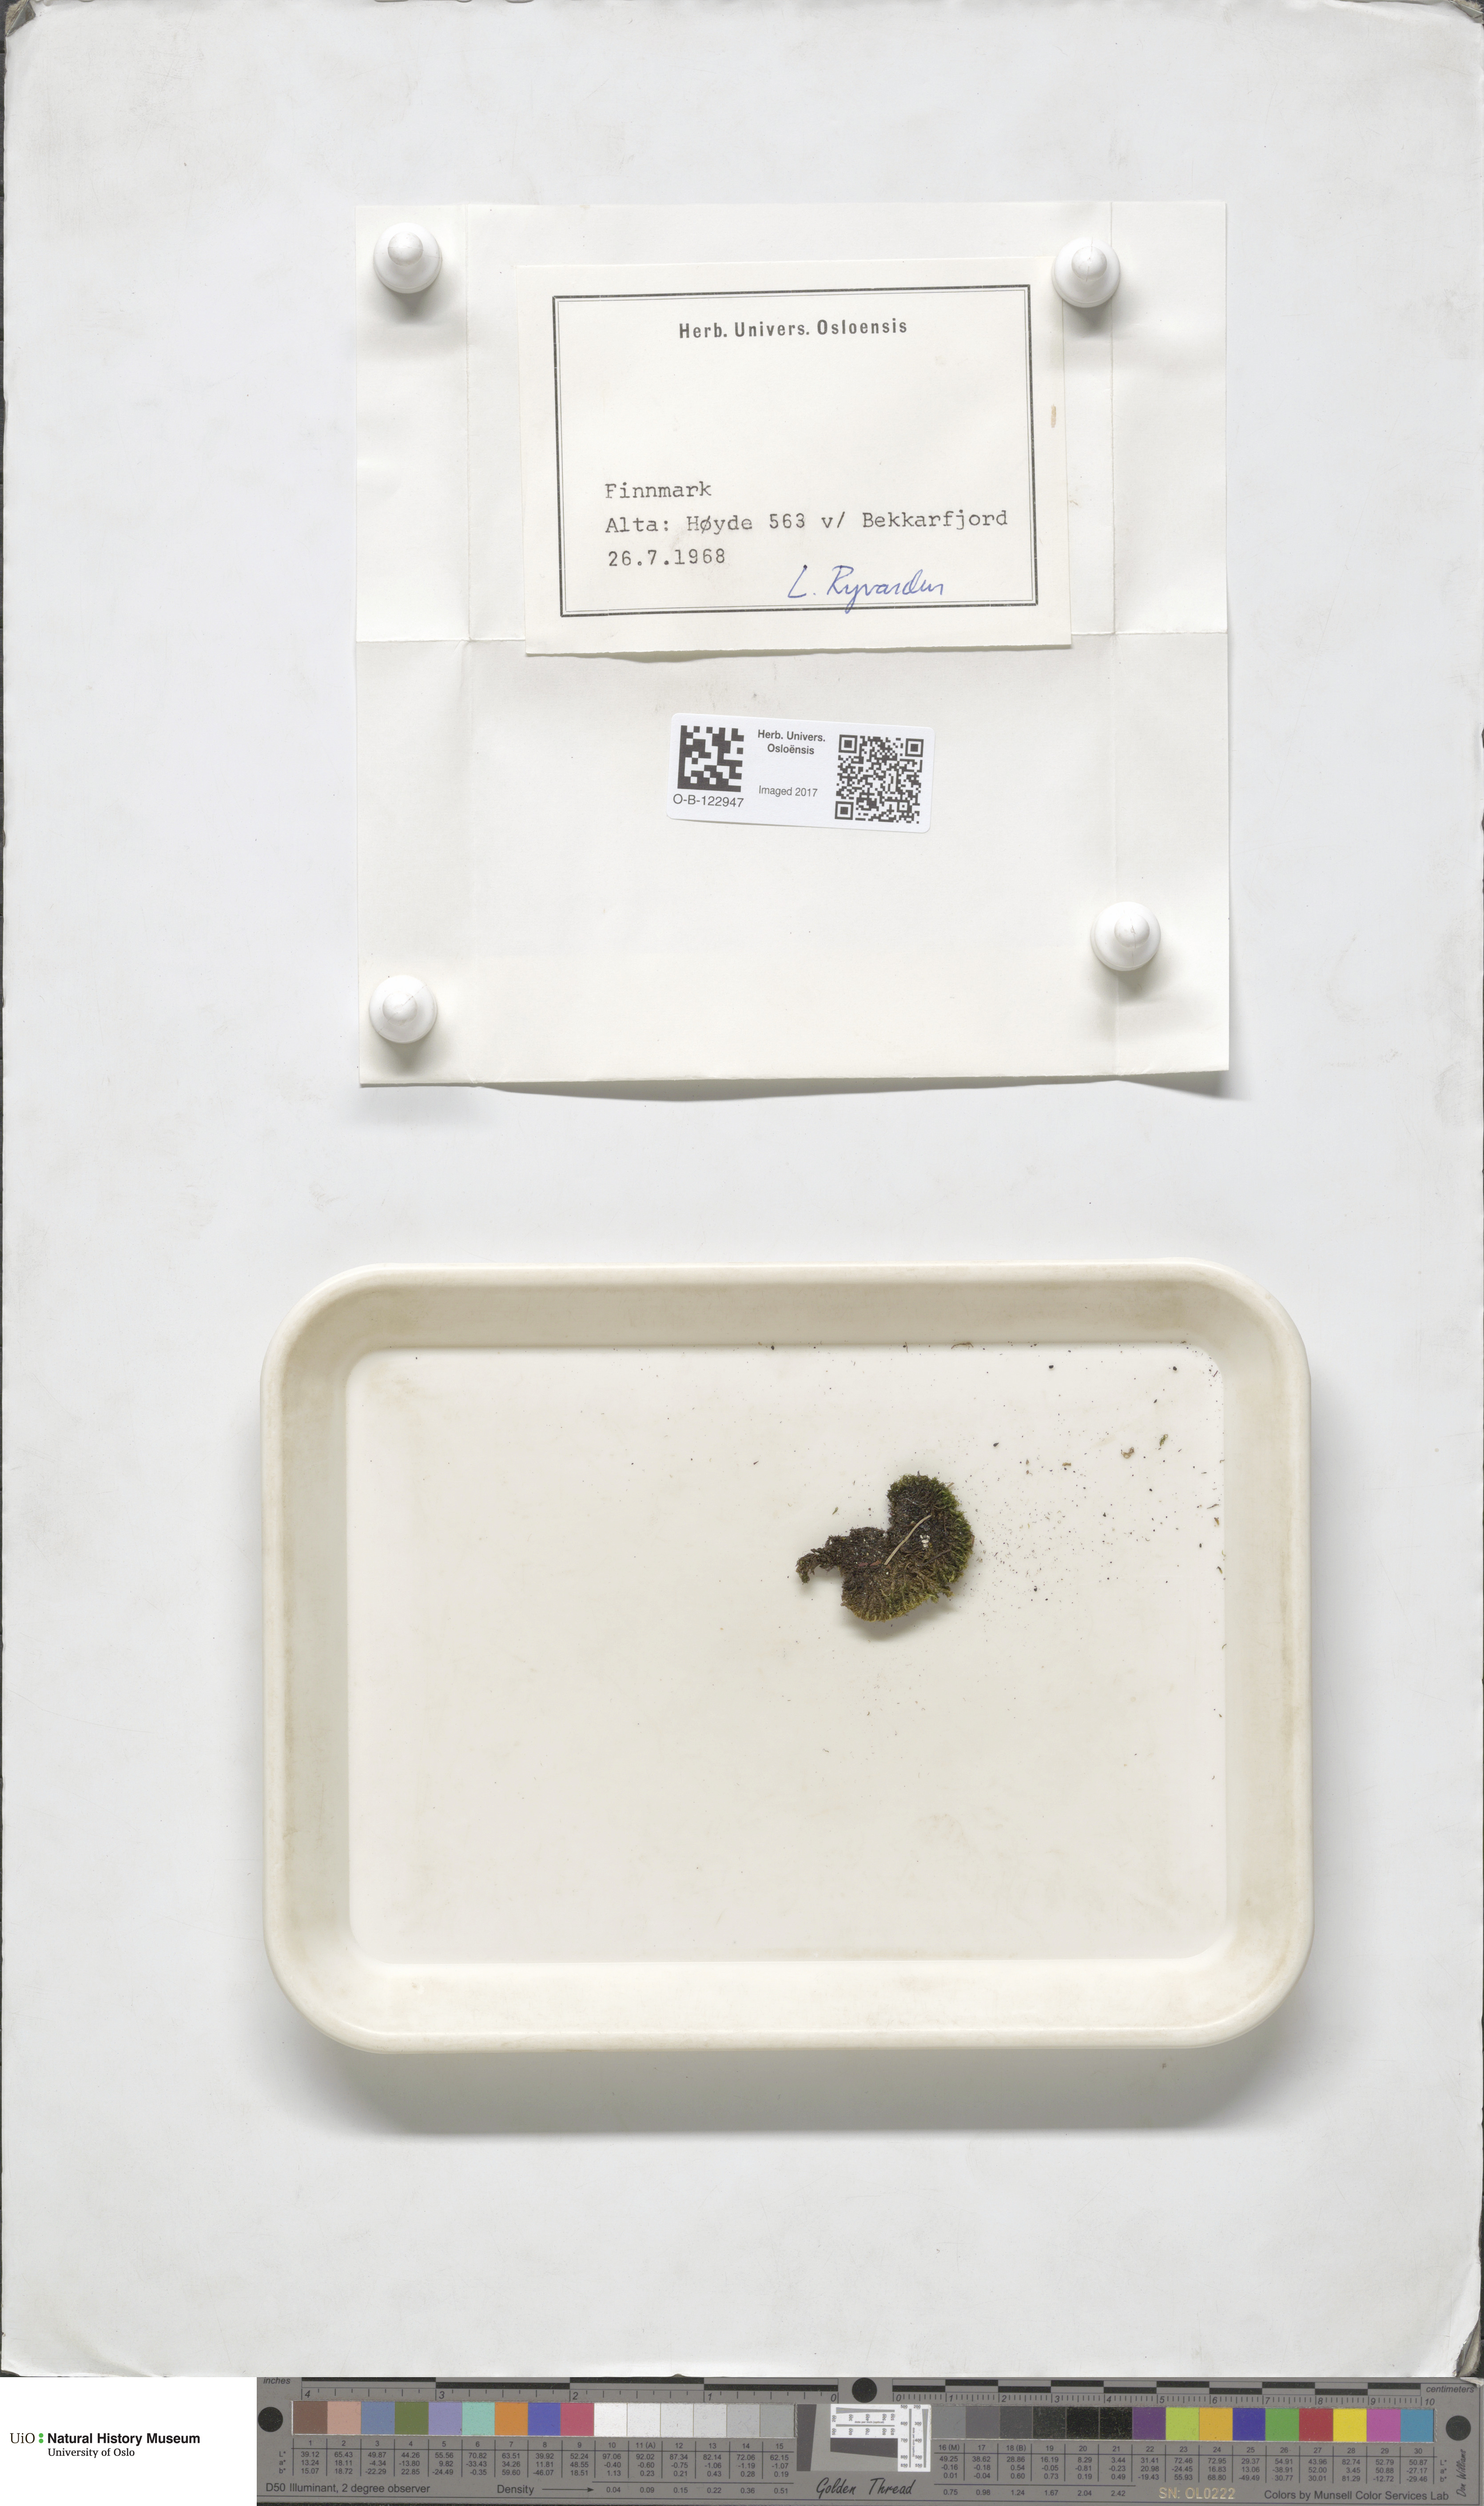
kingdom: Plantae
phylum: Bryophyta
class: Bryopsida
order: Dicranales
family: Dicranellaceae
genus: Dicranella
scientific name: Dicranella
